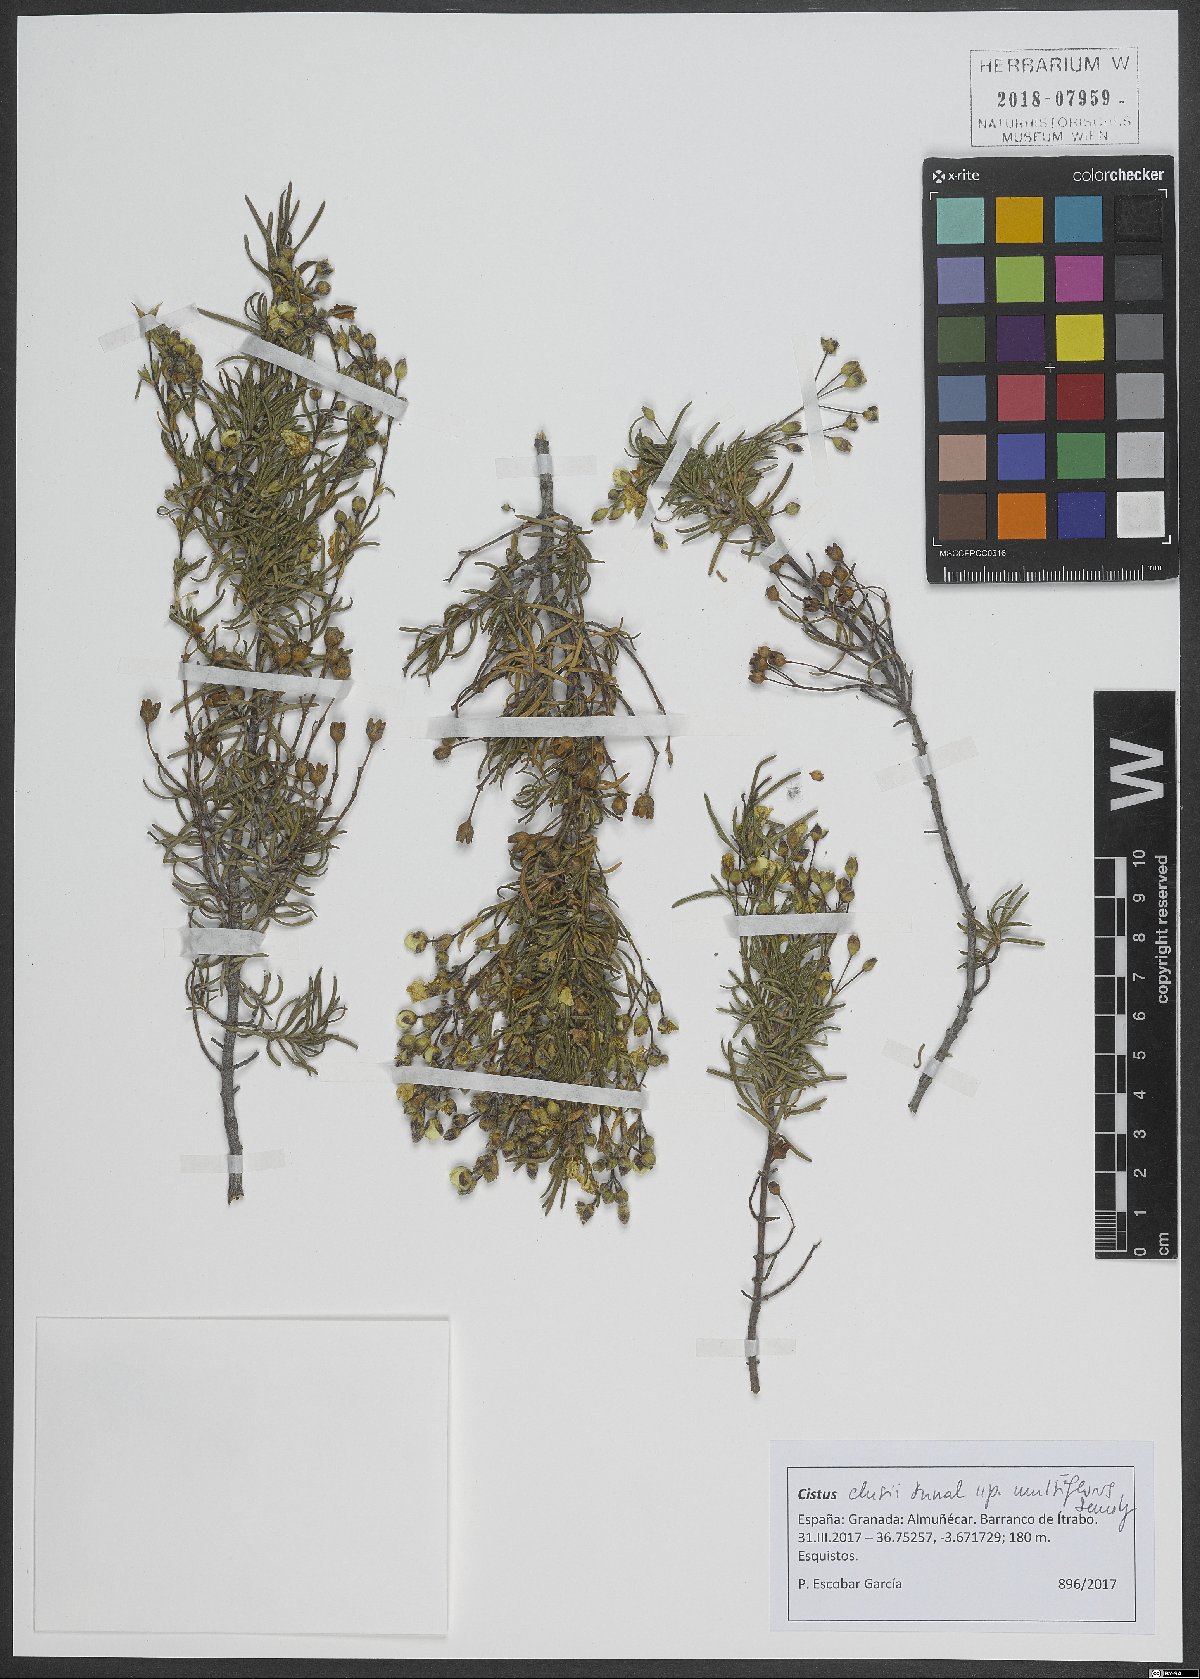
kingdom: Plantae
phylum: Tracheophyta
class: Magnoliopsida
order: Malvales
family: Cistaceae
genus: Cistus
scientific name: Cistus clusii
